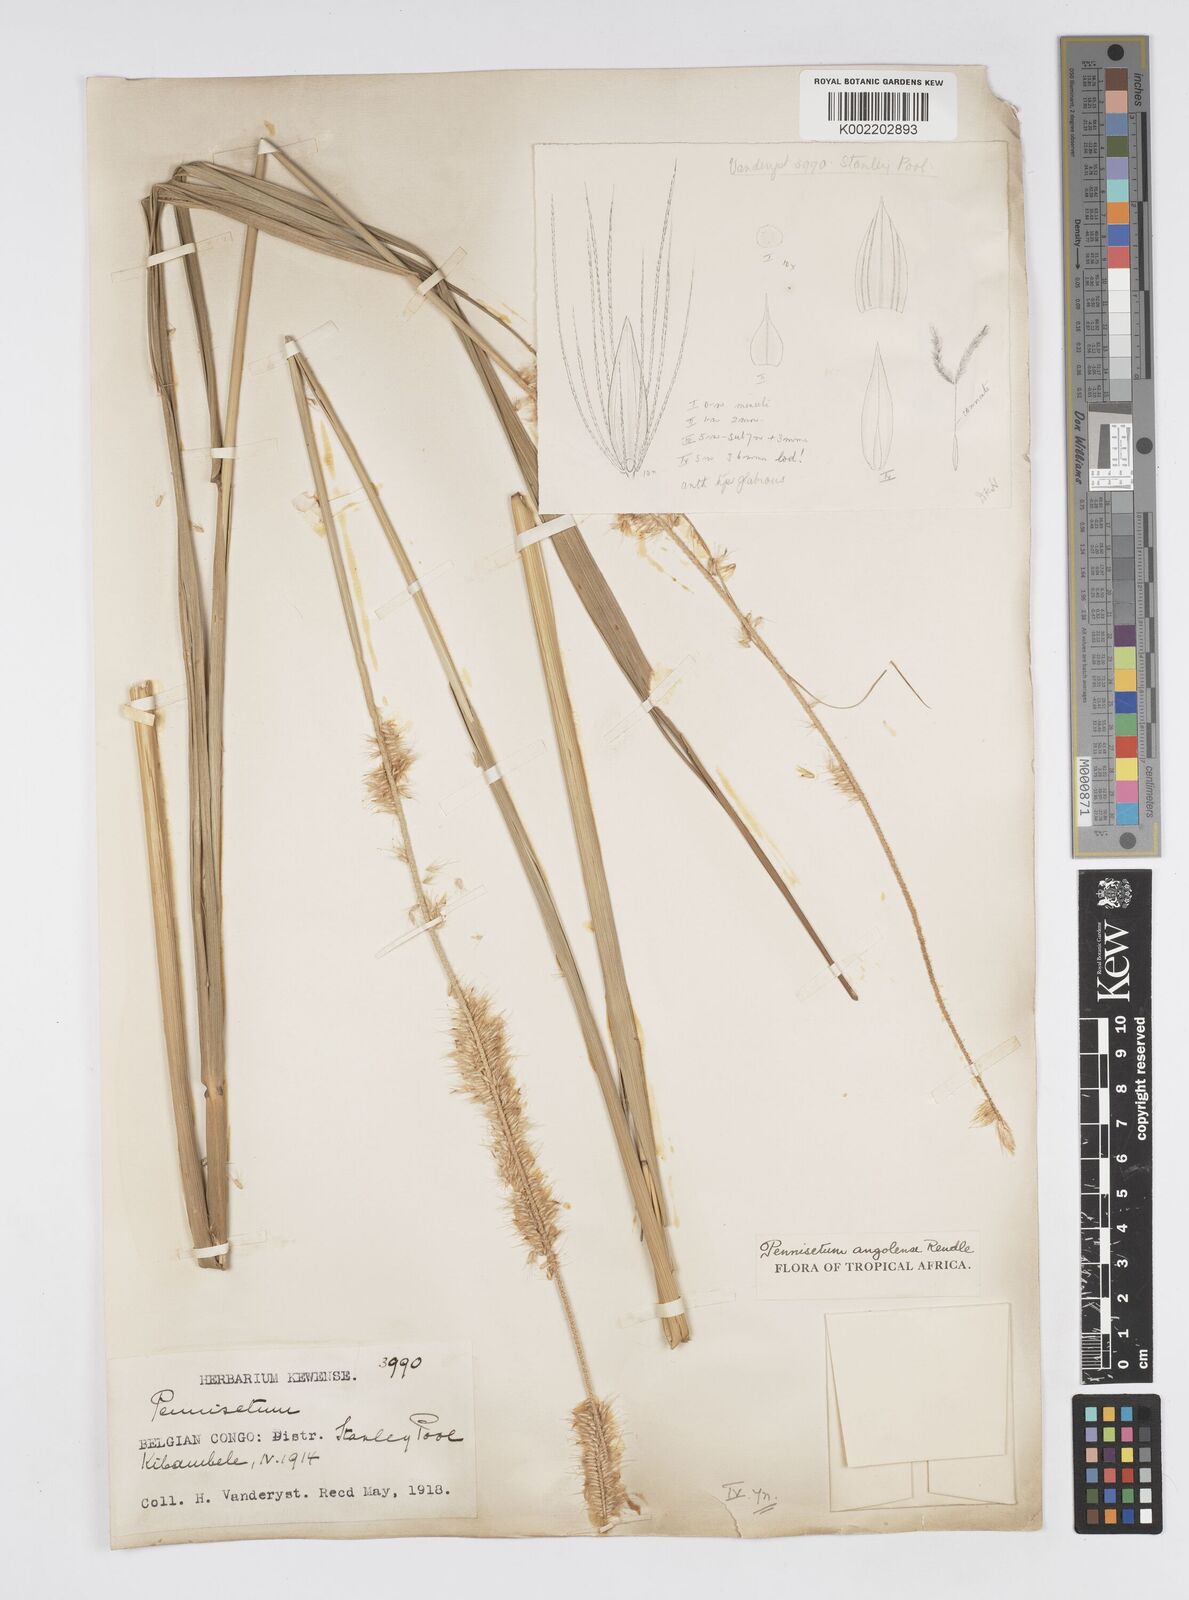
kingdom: Plantae
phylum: Tracheophyta
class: Liliopsida
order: Poales
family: Poaceae
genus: Cenchrus
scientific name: Cenchrus caudatus
